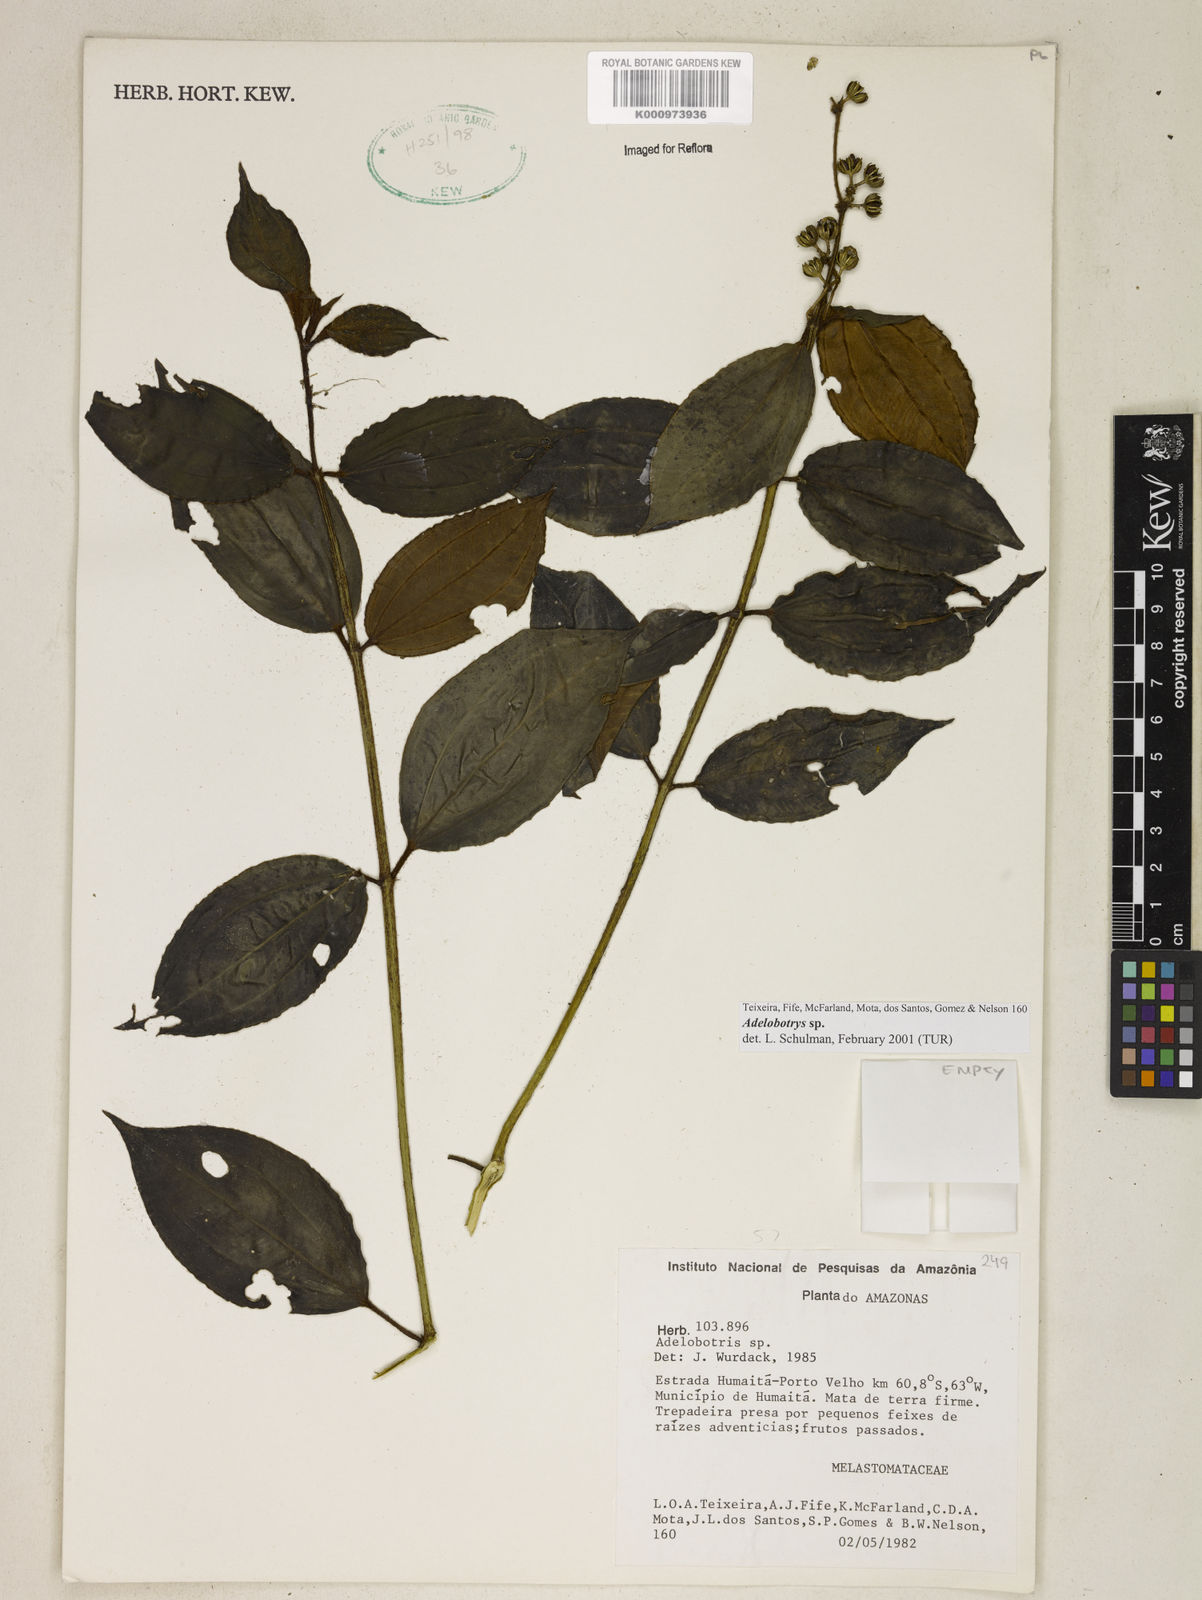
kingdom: Plantae
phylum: Tracheophyta
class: Magnoliopsida
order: Myrtales
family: Melastomataceae
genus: Adelobotrys
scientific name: Adelobotrys
